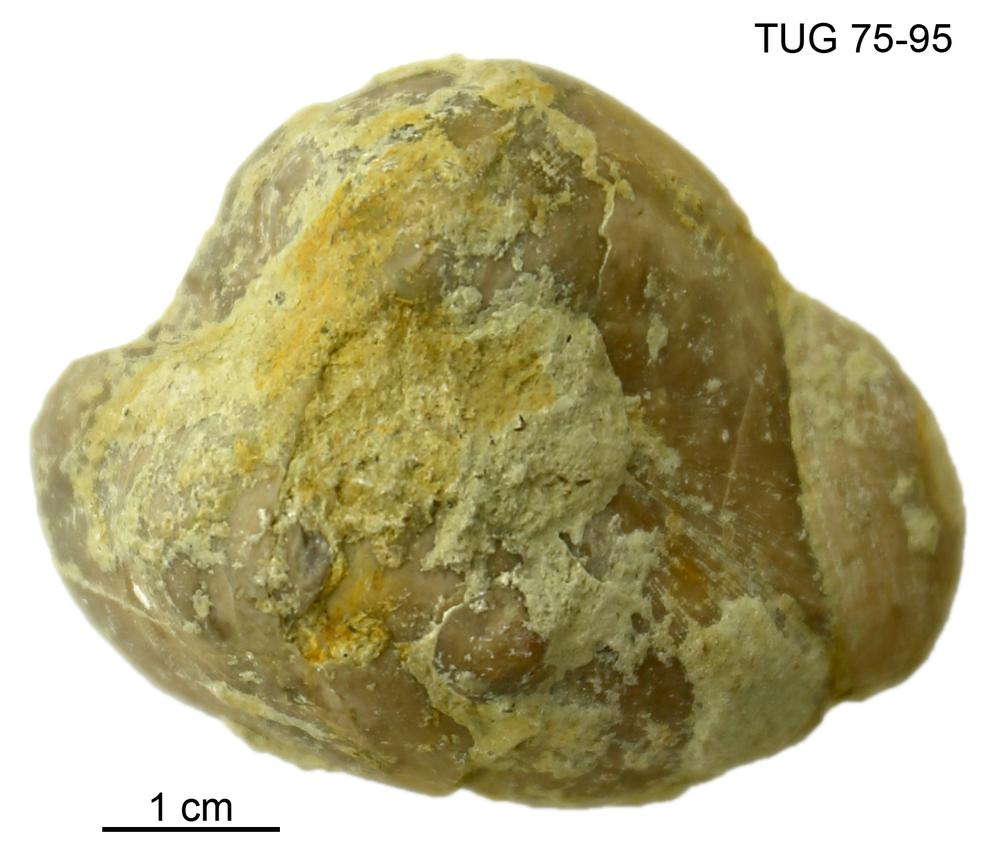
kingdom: Animalia
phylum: Brachiopoda
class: Rhynchonellata
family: Porambonitidae
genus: Porambonites
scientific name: Porambonites
